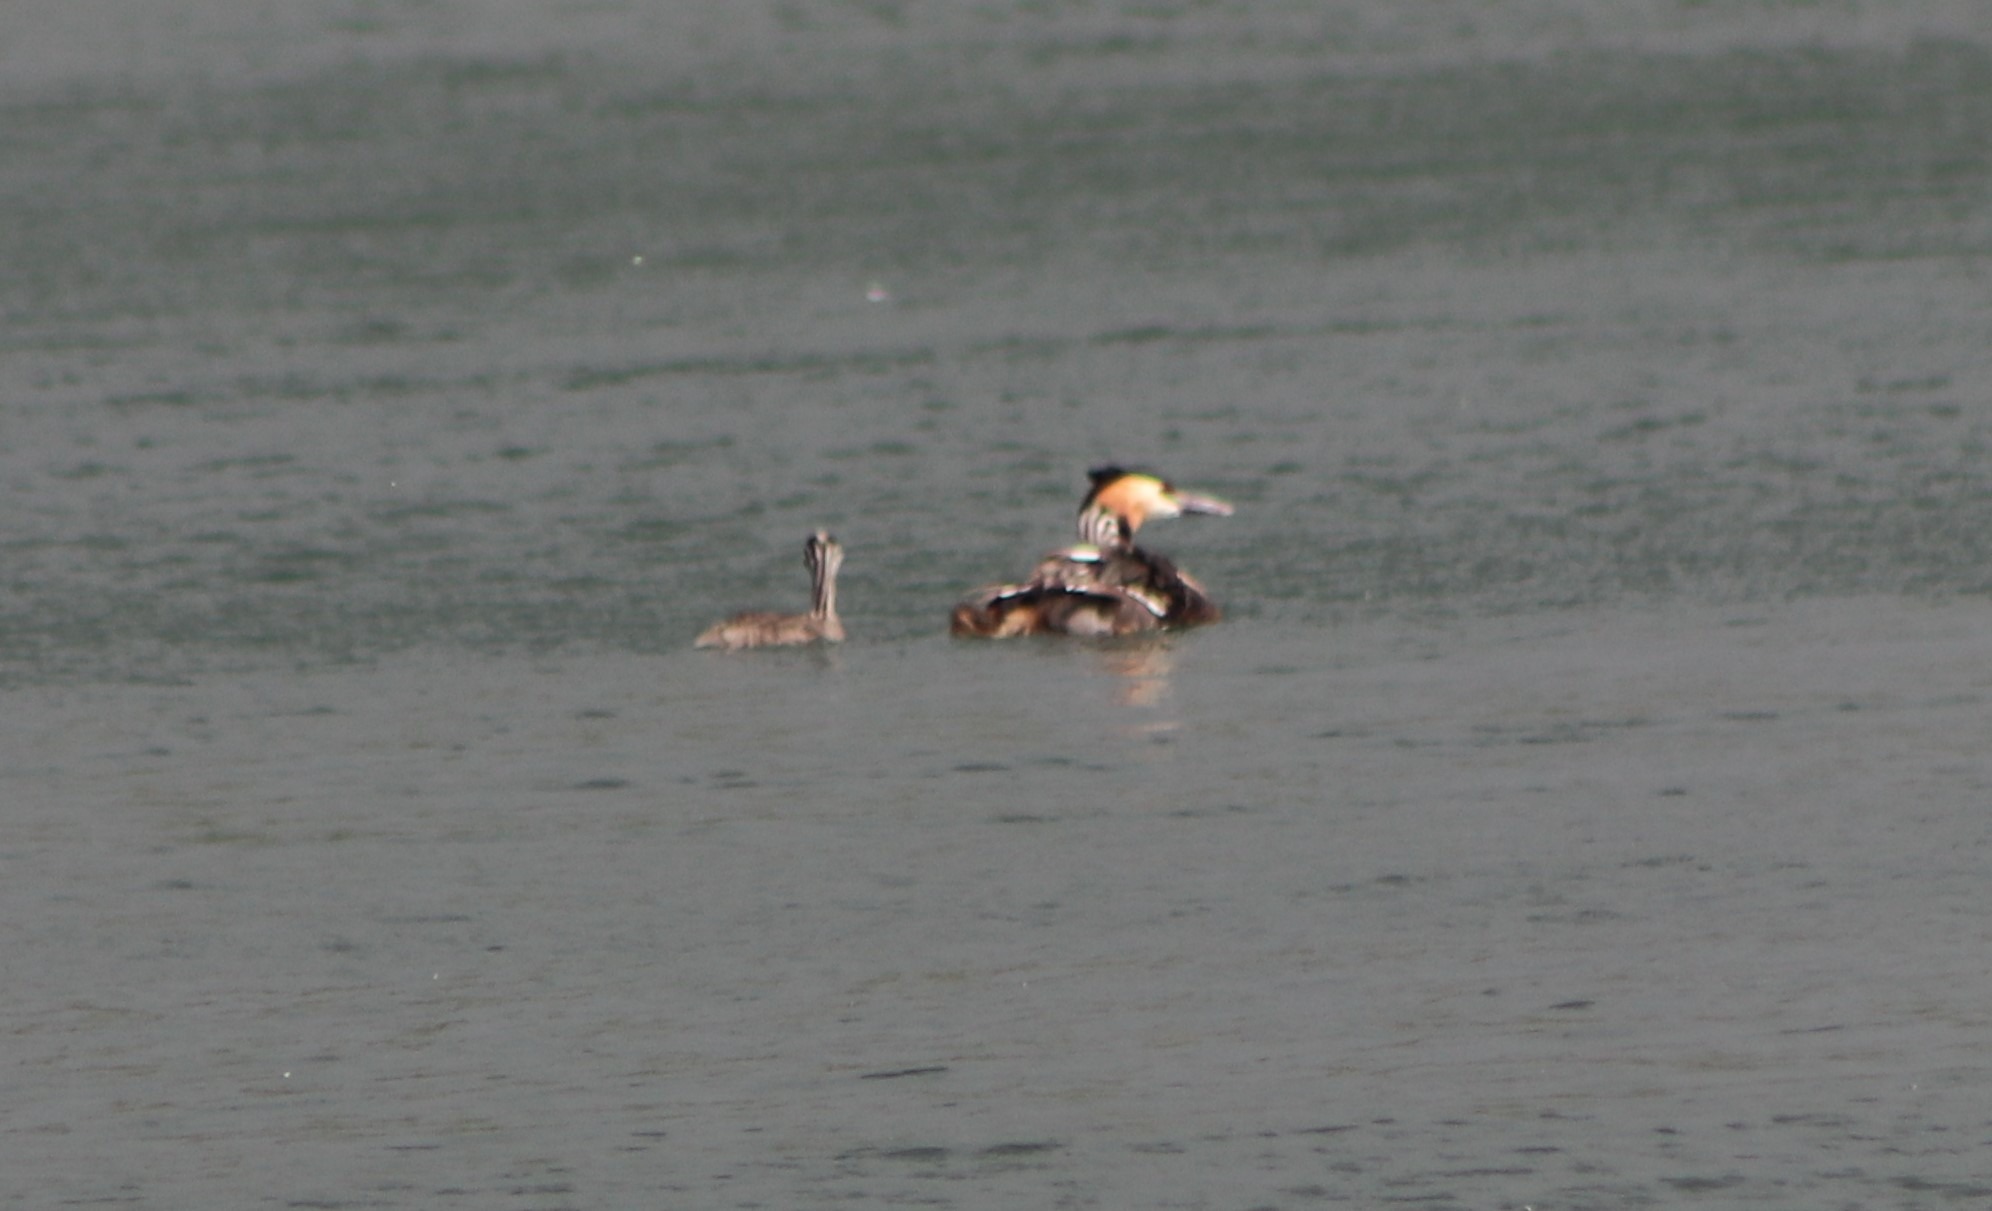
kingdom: Animalia
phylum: Chordata
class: Aves
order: Podicipediformes
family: Podicipedidae
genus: Podiceps
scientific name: Podiceps cristatus
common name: Toppet lappedykker
